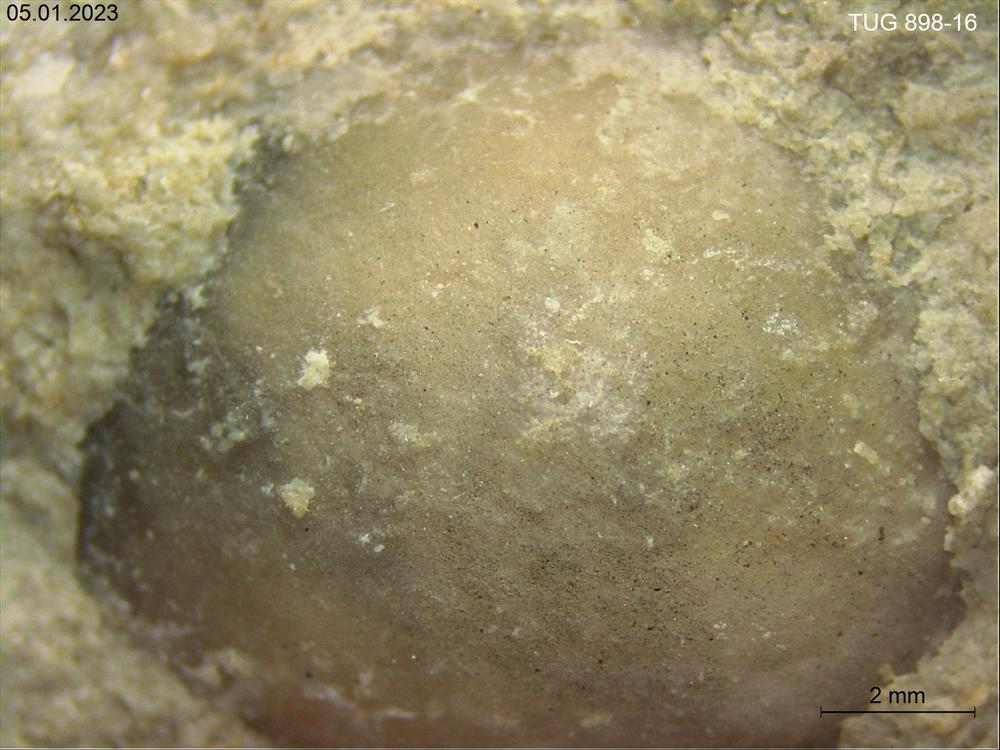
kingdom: Animalia
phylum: Bryozoa
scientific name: Bryozoa
